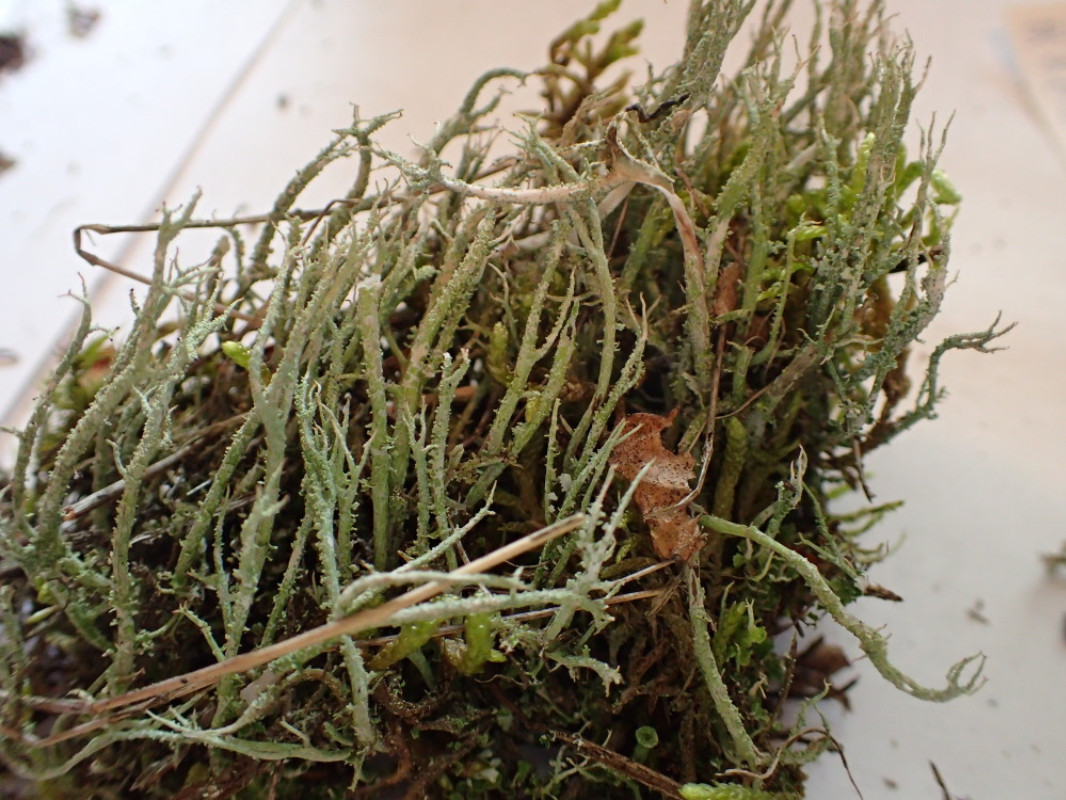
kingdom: Fungi
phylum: Ascomycota
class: Lecanoromycetes
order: Lecanorales
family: Cladoniaceae
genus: Cladonia
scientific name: Cladonia scabriuscula
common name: ru bægerlav
